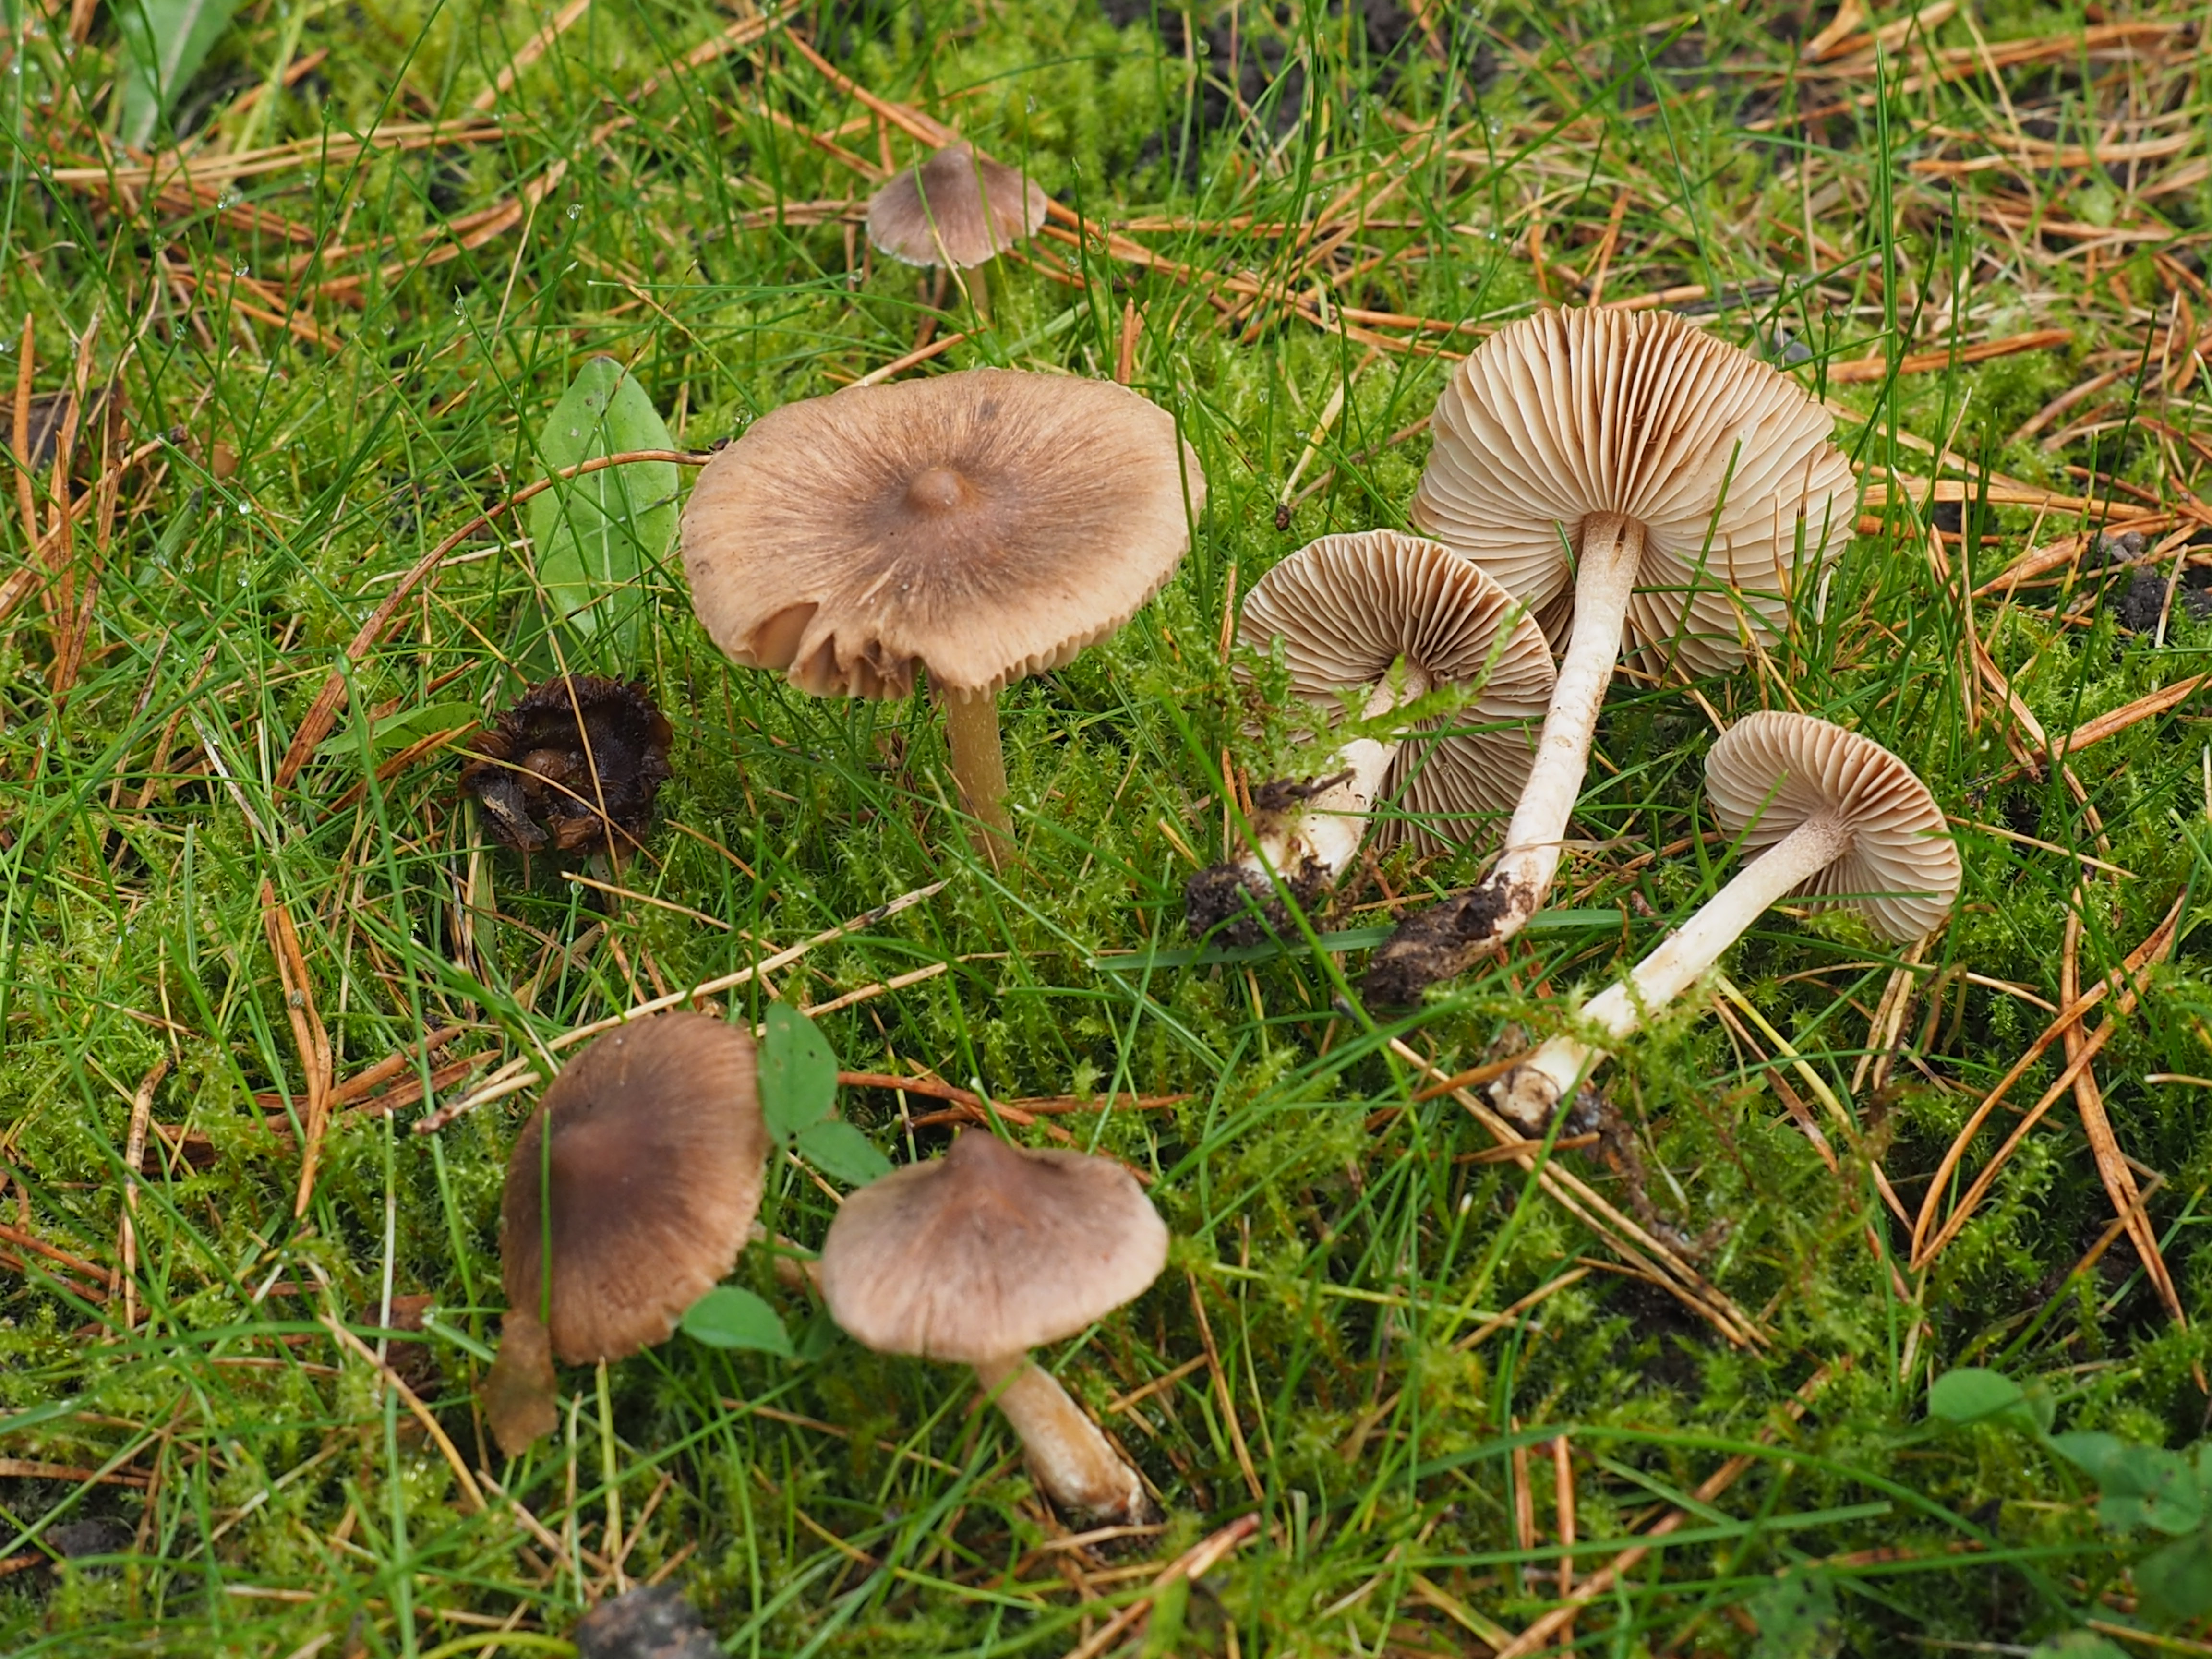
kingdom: Fungi
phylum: Basidiomycota
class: Agaricomycetes
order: Agaricales
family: Inocybaceae
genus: Inocybe
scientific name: Inocybe flocculosa
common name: Fleecy fibrecap
